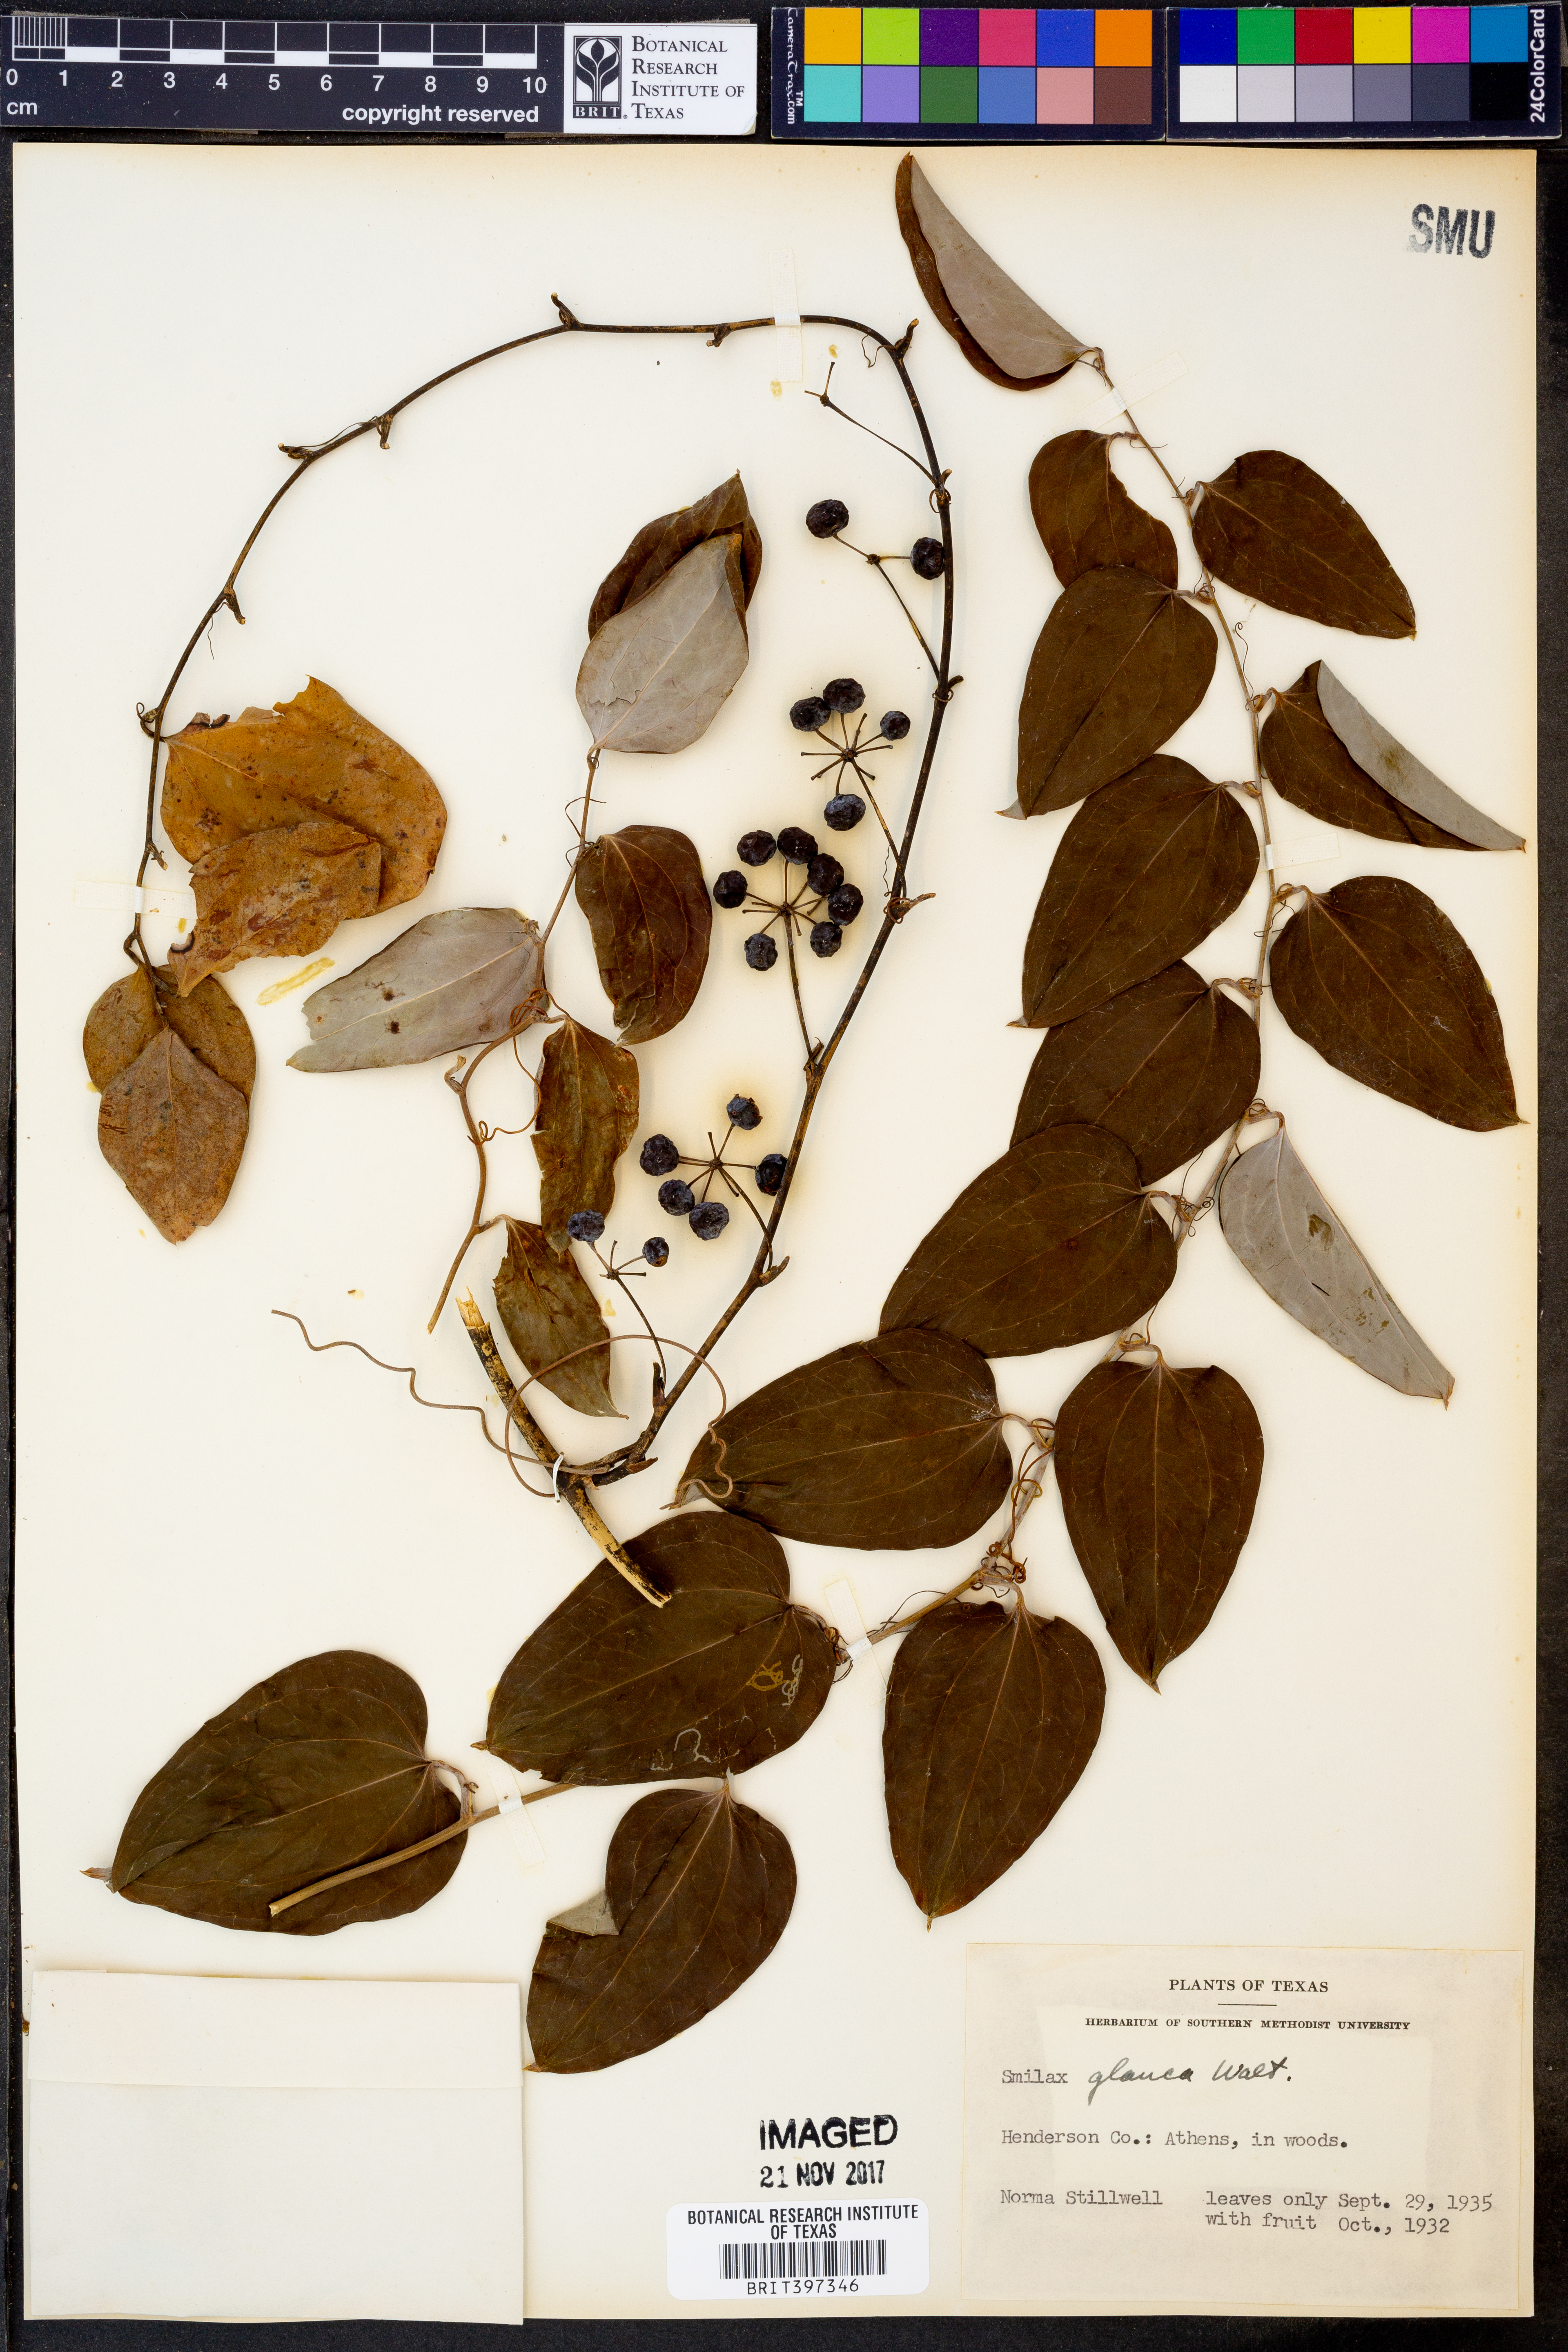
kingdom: Plantae
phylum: Tracheophyta
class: Liliopsida
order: Liliales
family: Smilacaceae
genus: Smilax
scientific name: Smilax glauca
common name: Cat greenbrier
